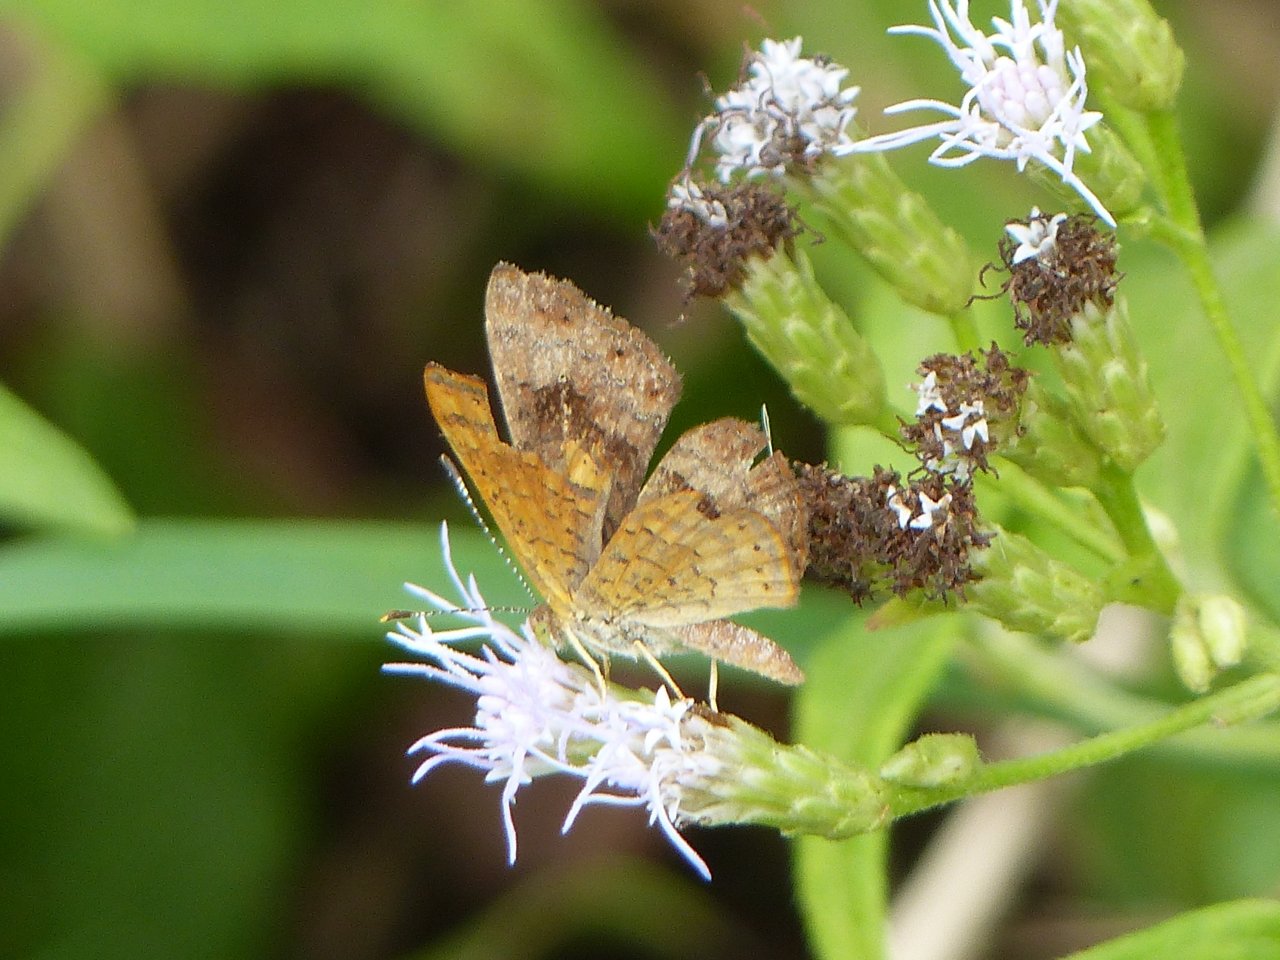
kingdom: Animalia
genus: Calephelis
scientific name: Calephelis nemesis
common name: Fatal Metalmark
